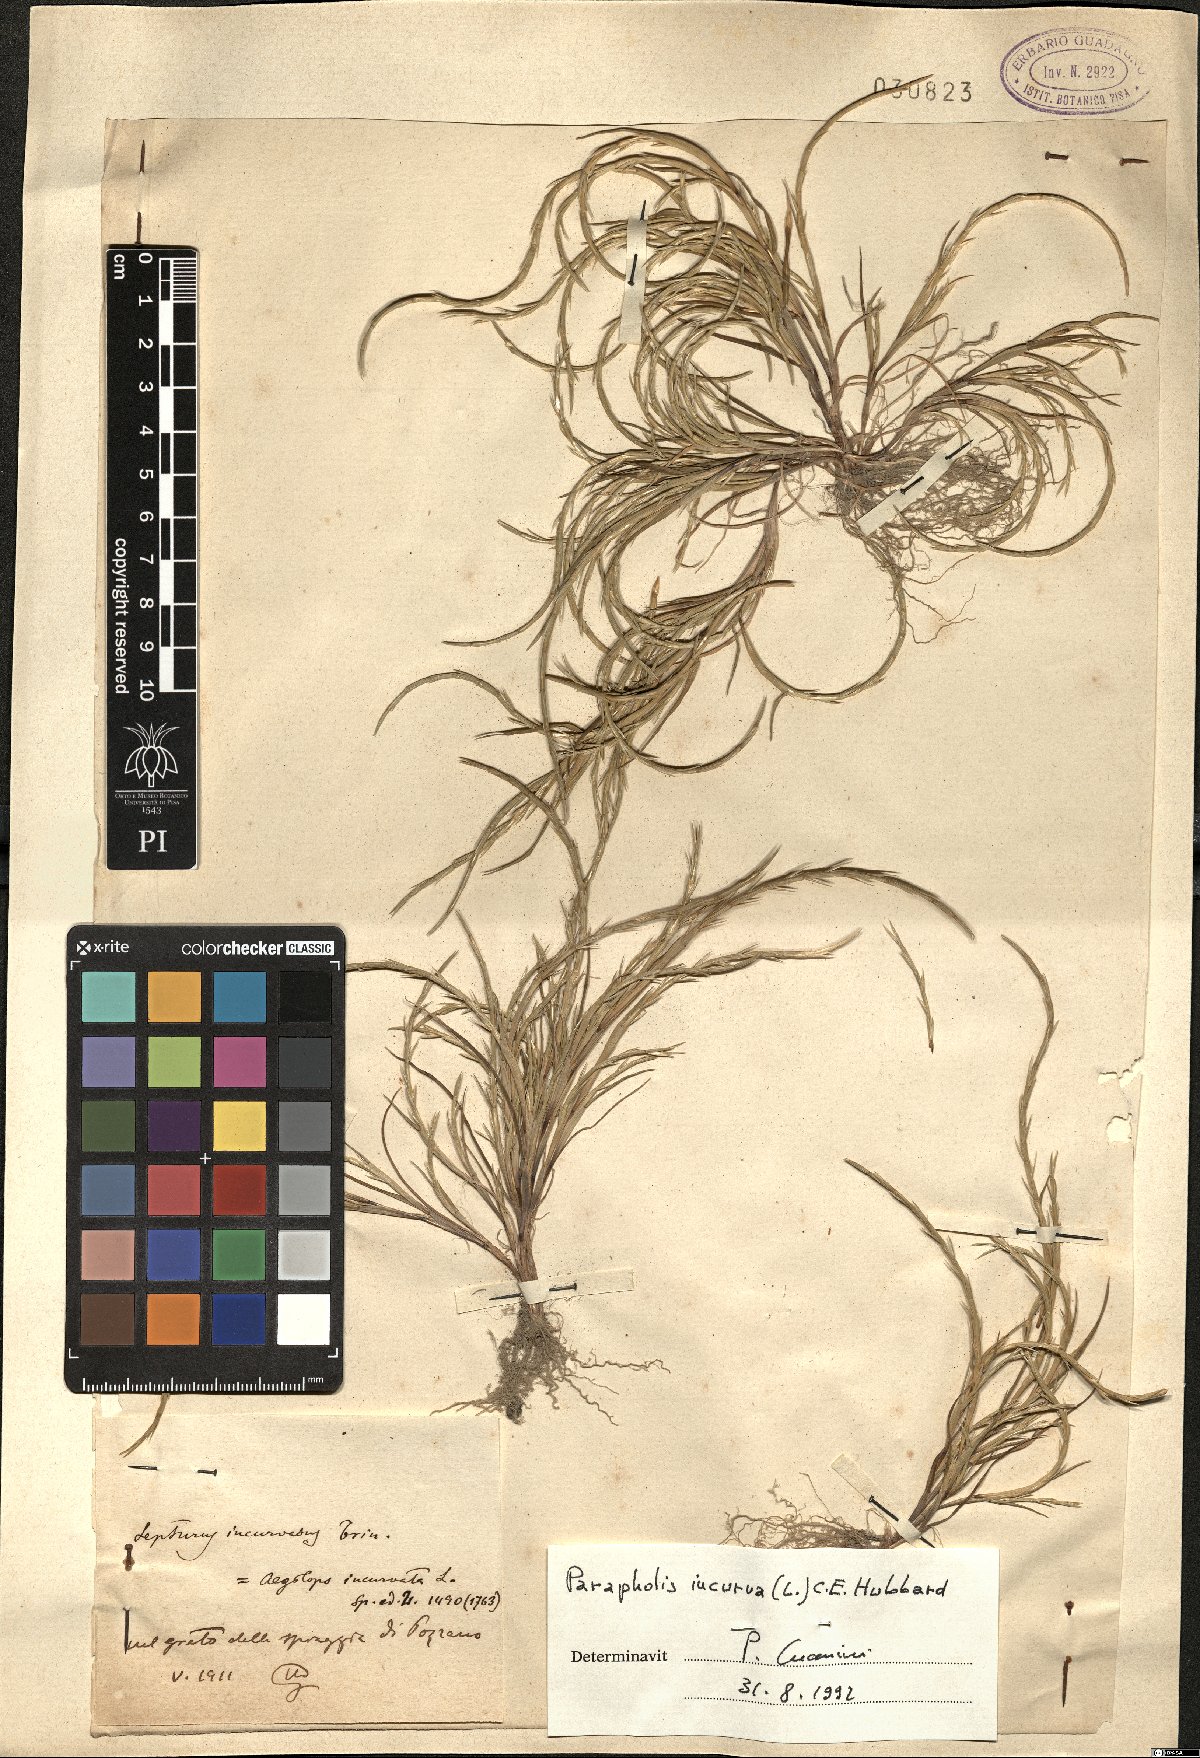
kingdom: Plantae
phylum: Tracheophyta
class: Liliopsida
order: Poales
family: Poaceae
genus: Parapholis
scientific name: Parapholis incurva
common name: Curved sicklegrass
